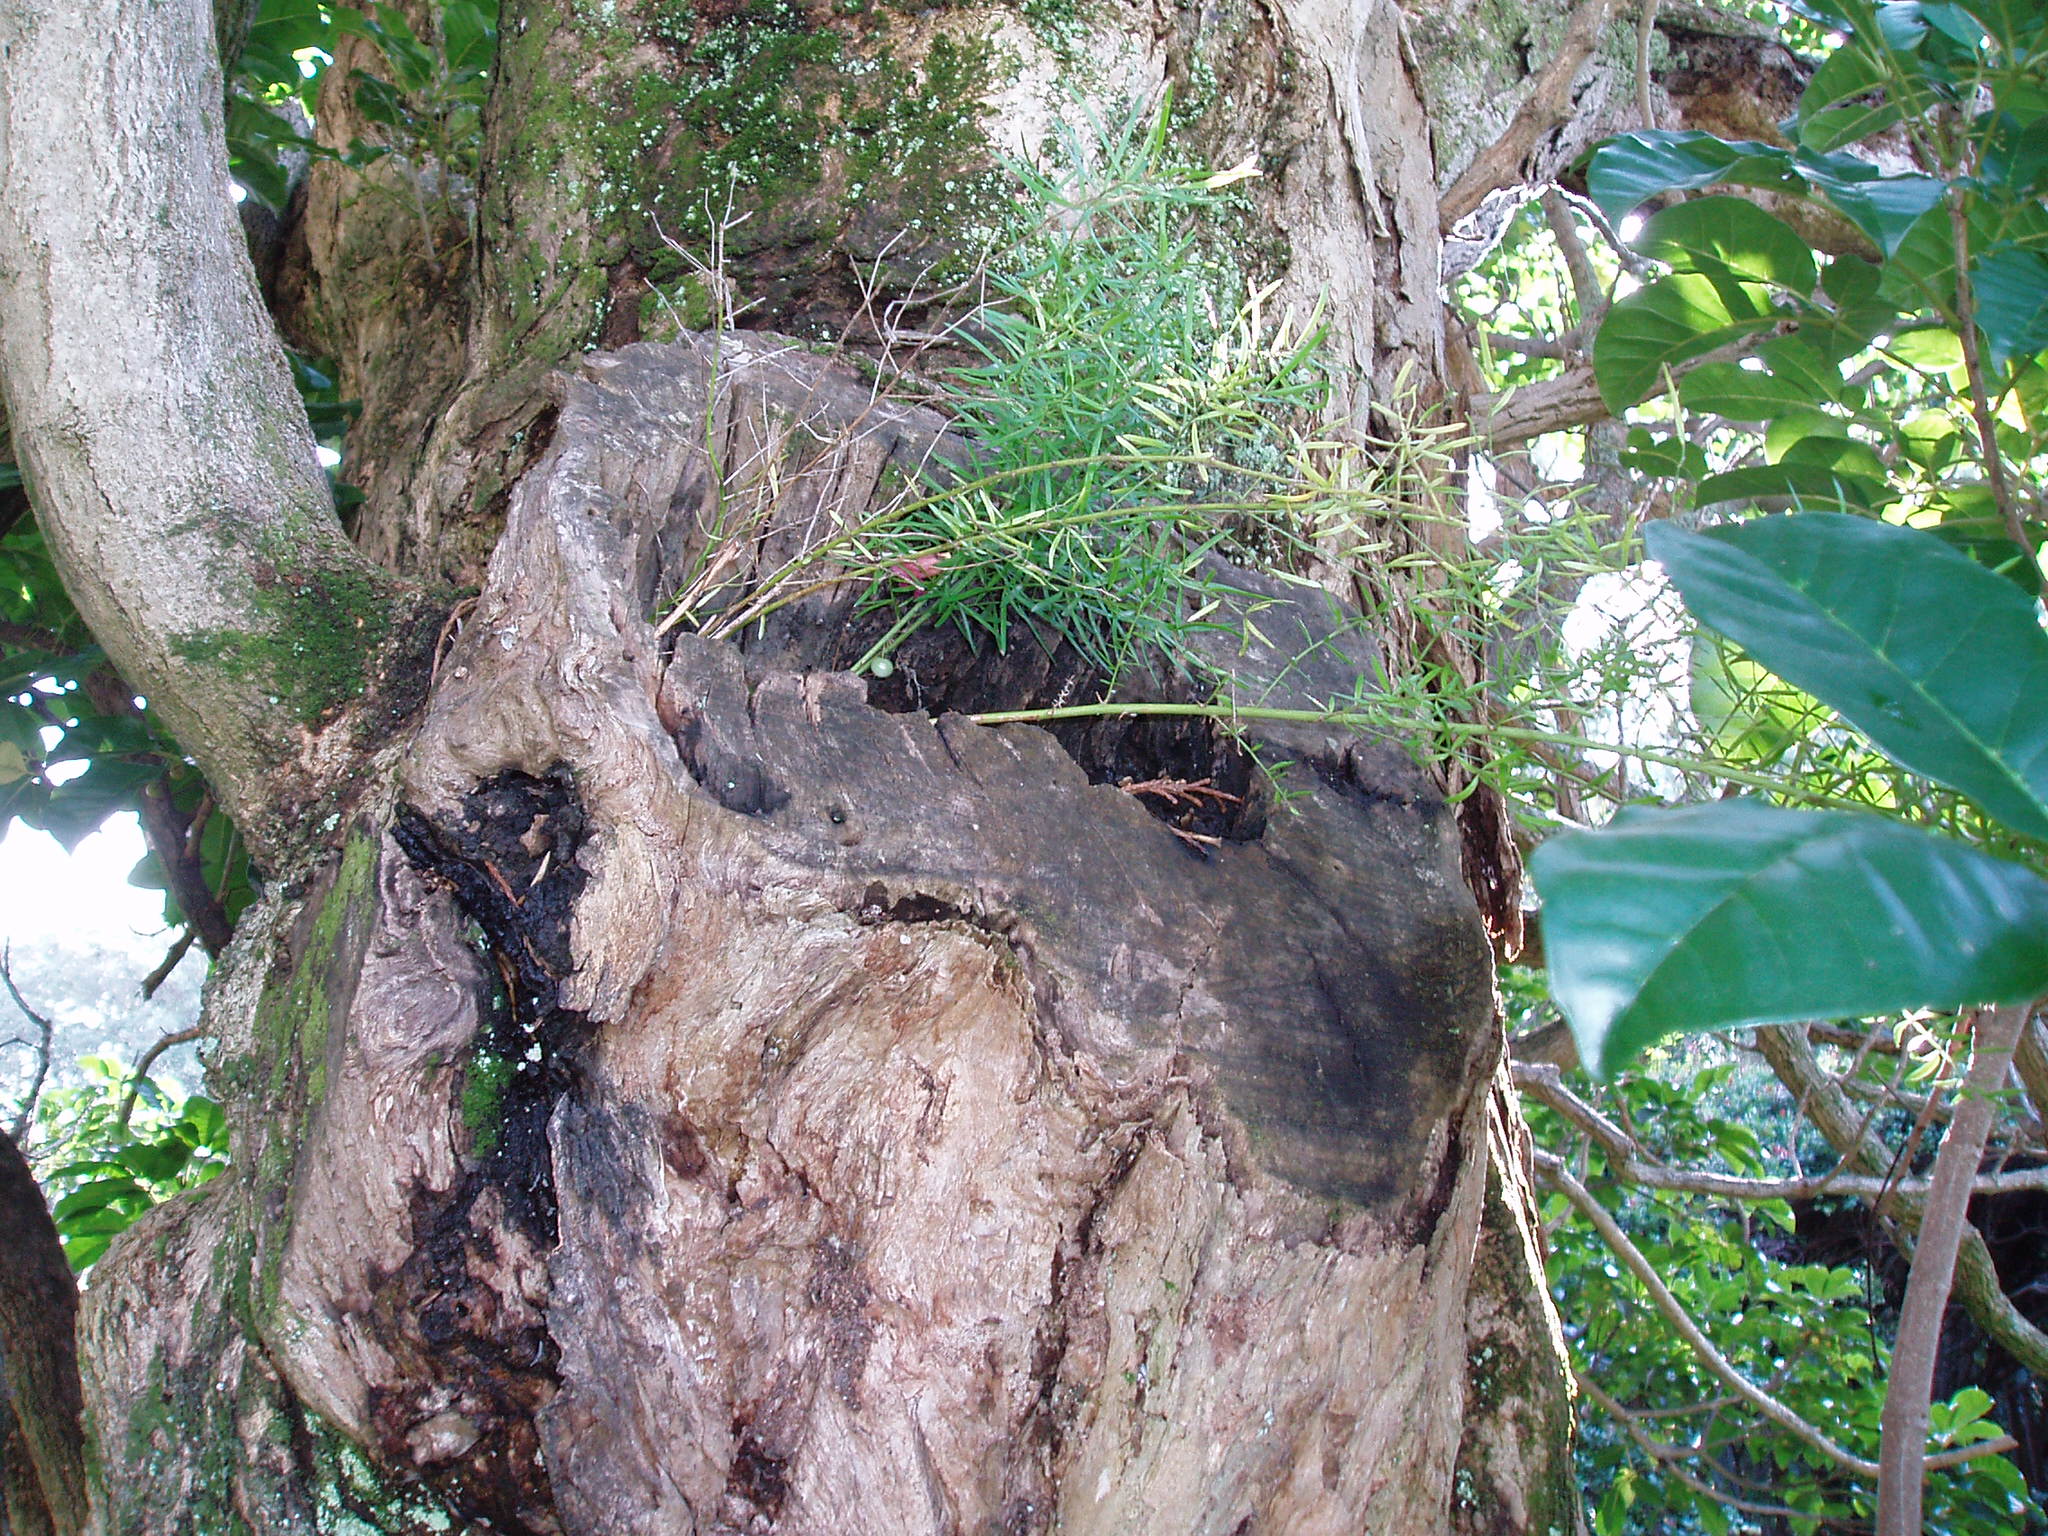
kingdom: Plantae
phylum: Tracheophyta
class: Liliopsida
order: Asparagales
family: Asparagaceae
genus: Asparagus
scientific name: Asparagus aethiopicus
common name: Sprenger's asparagus fern
